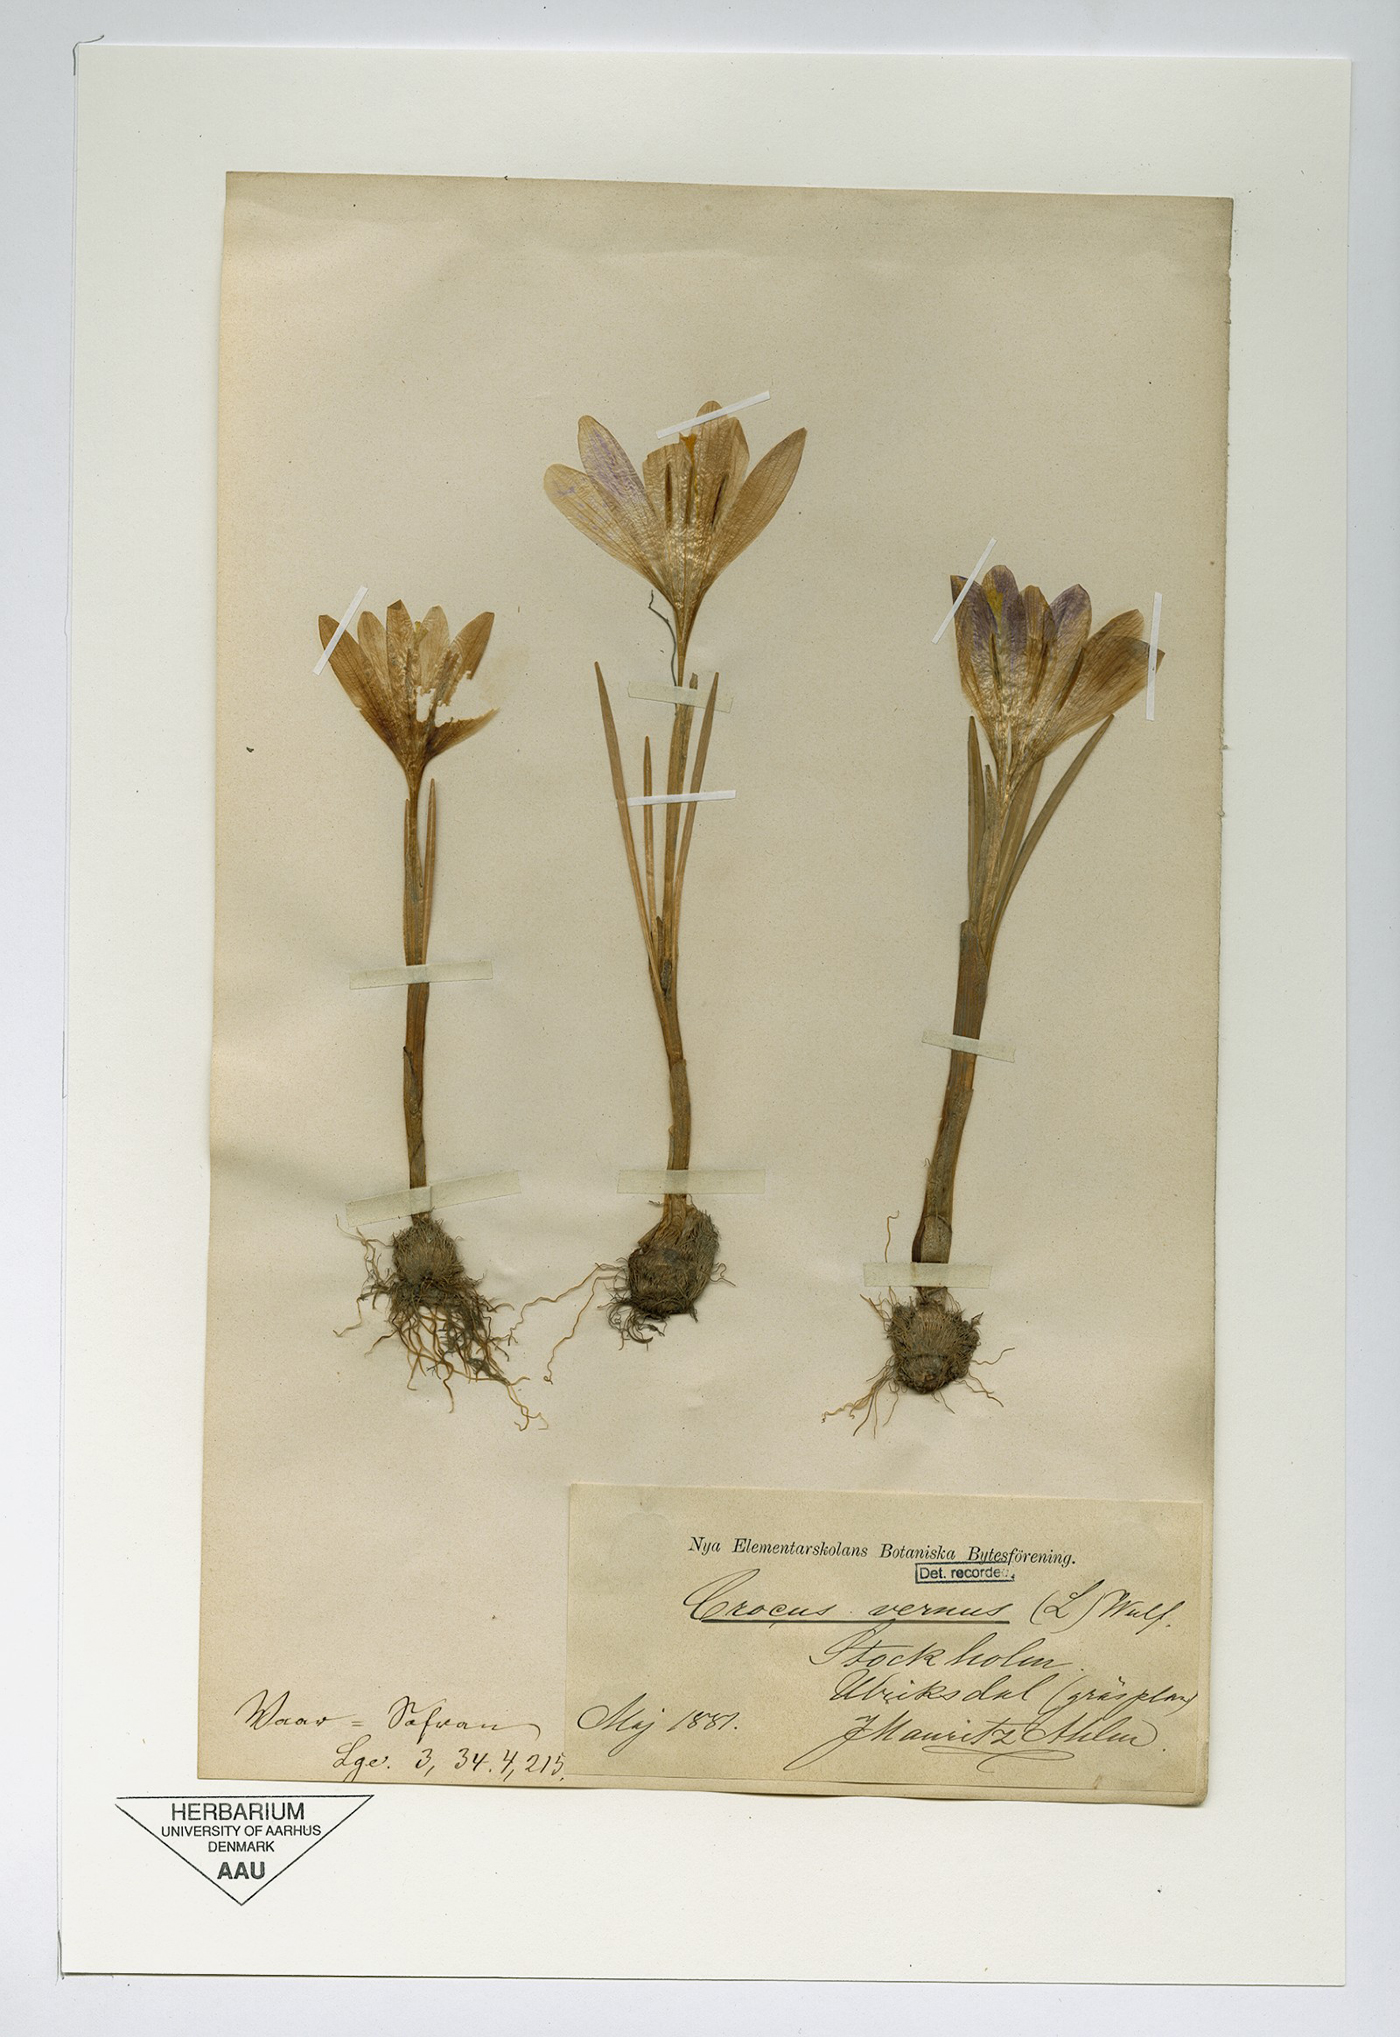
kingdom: Plantae
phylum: Tracheophyta
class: Liliopsida
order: Asparagales
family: Iridaceae
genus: Crocus
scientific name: Crocus neapolitanus
